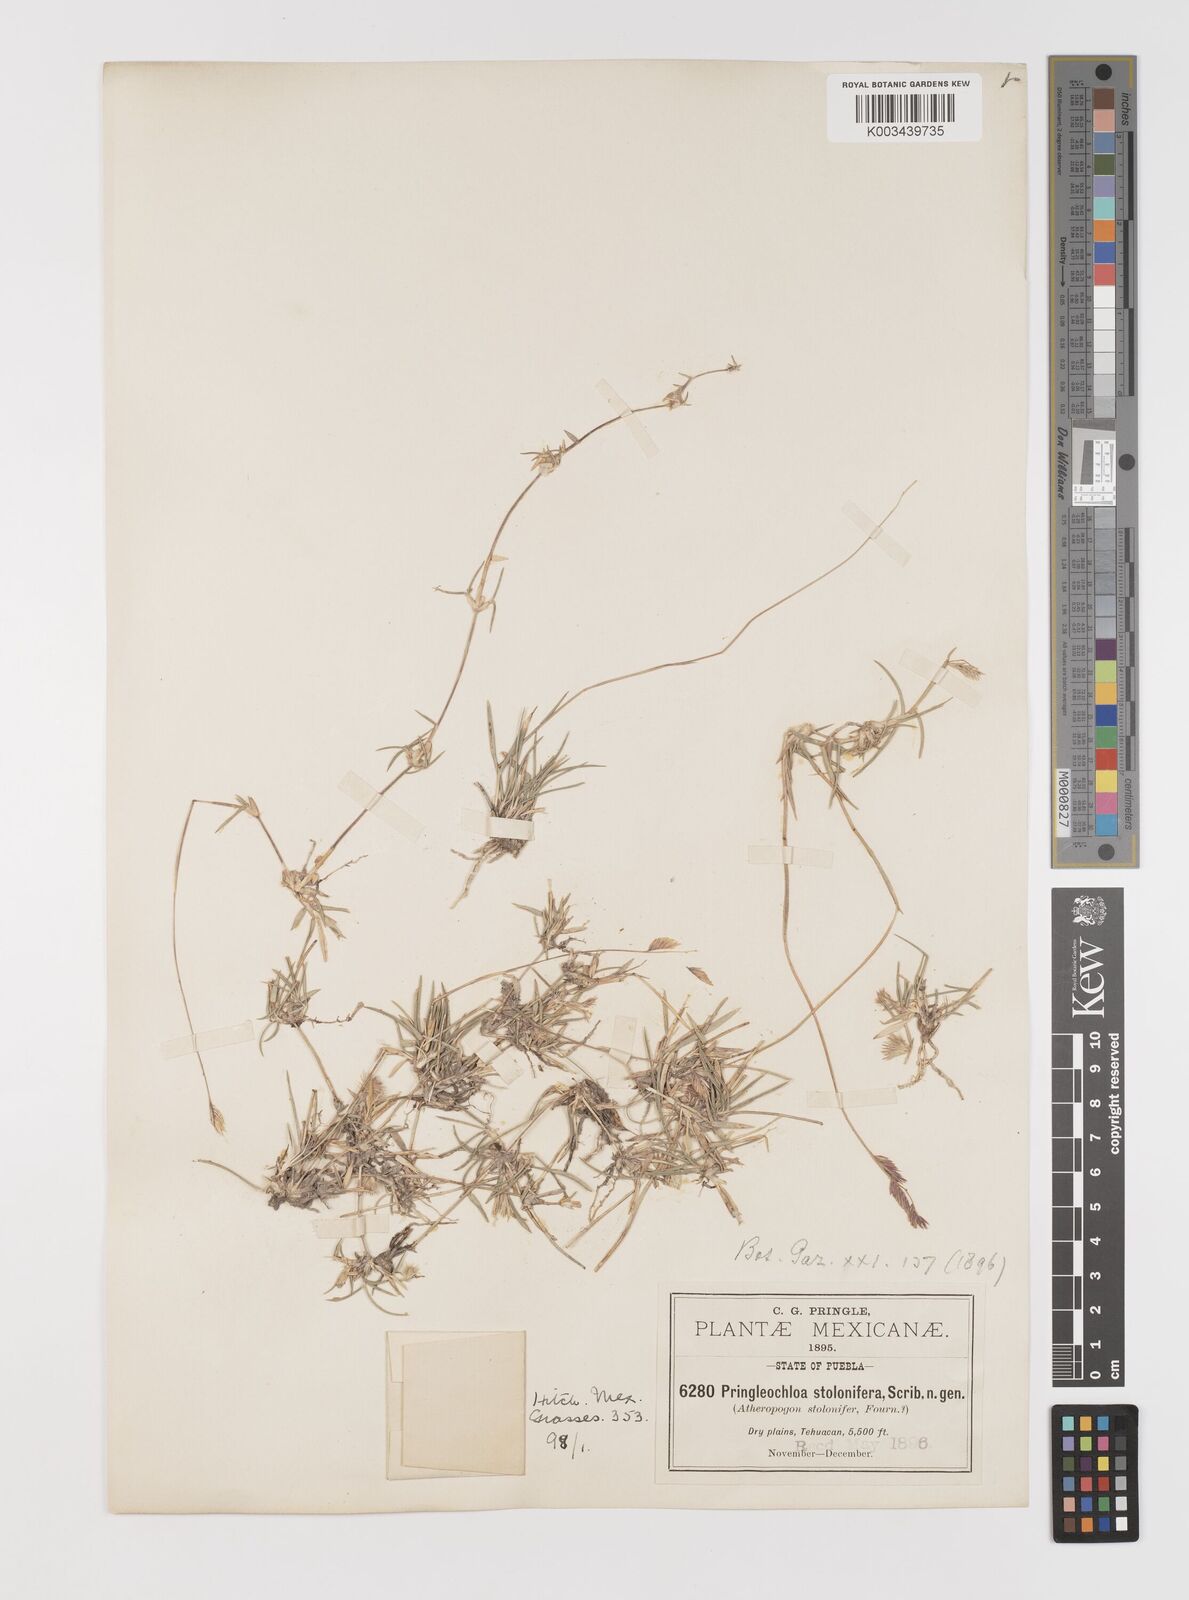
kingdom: Plantae
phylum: Tracheophyta
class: Liliopsida
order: Poales
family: Poaceae
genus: Bouteloua
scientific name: Bouteloua reederorum
